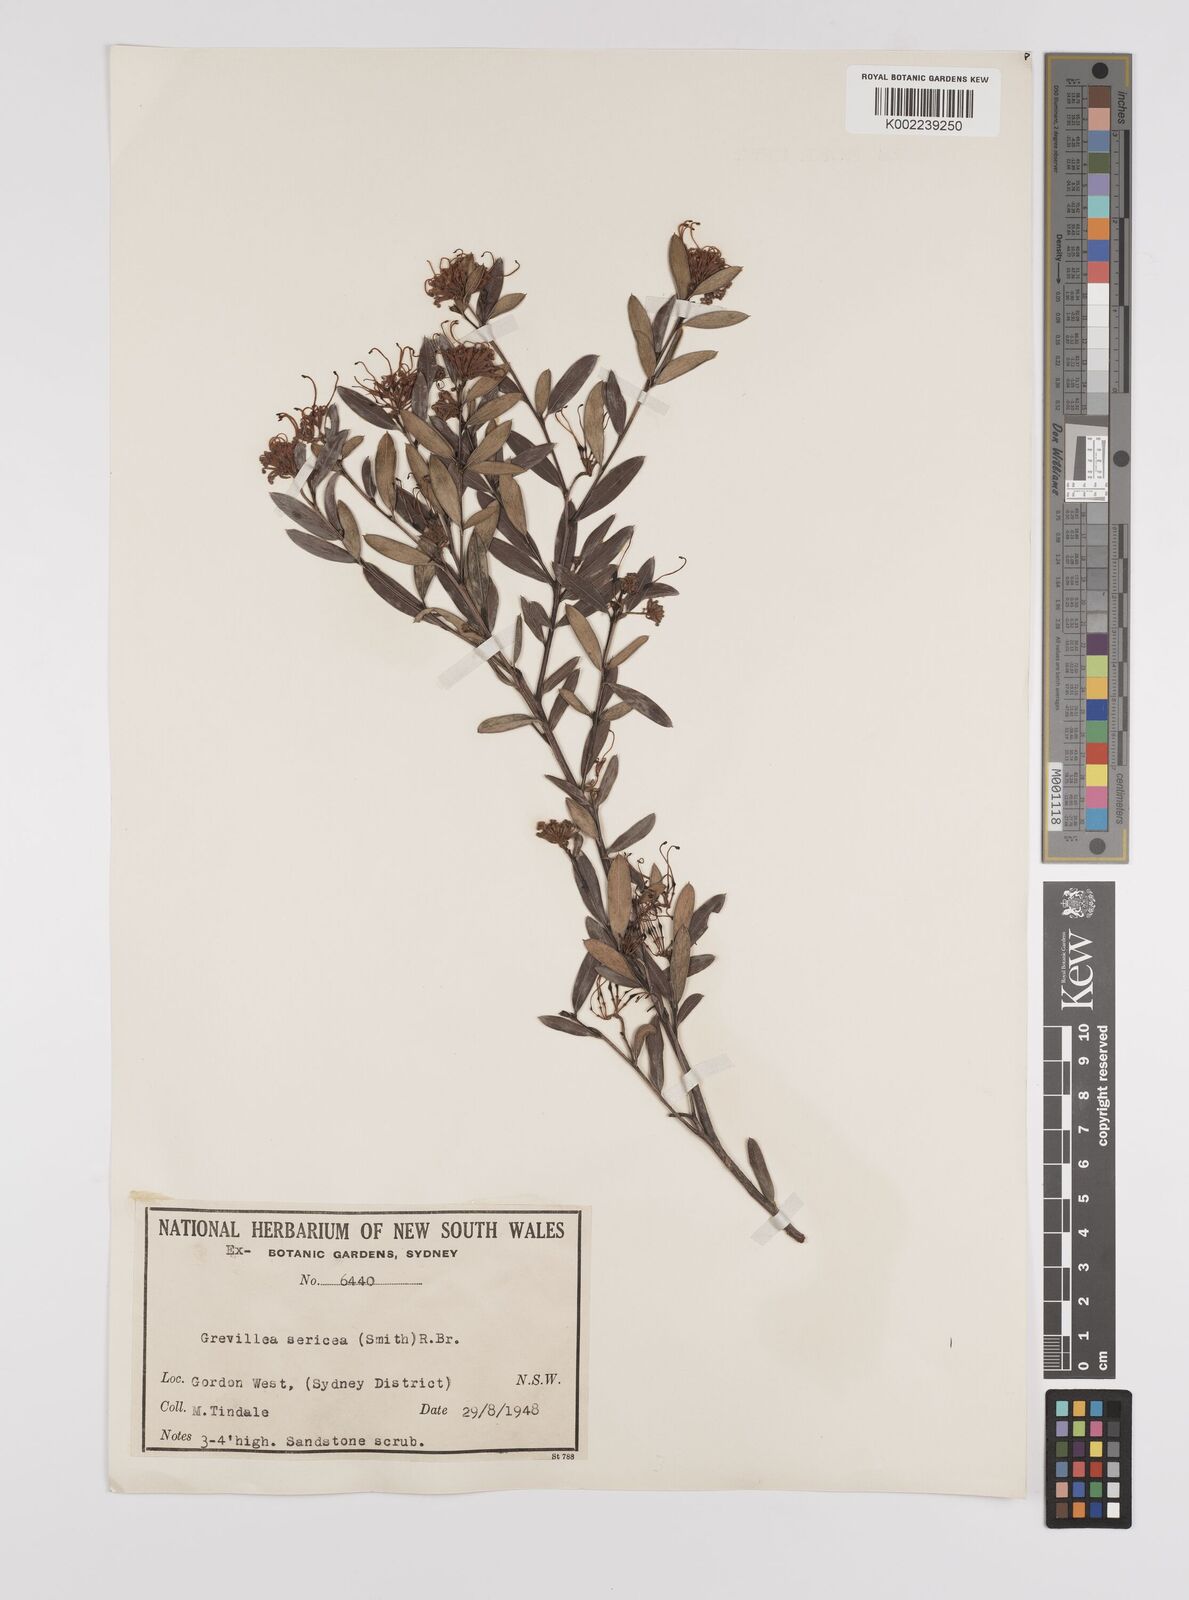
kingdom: Plantae
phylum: Tracheophyta
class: Magnoliopsida
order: Proteales
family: Proteaceae
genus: Grevillea
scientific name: Grevillea sericea
